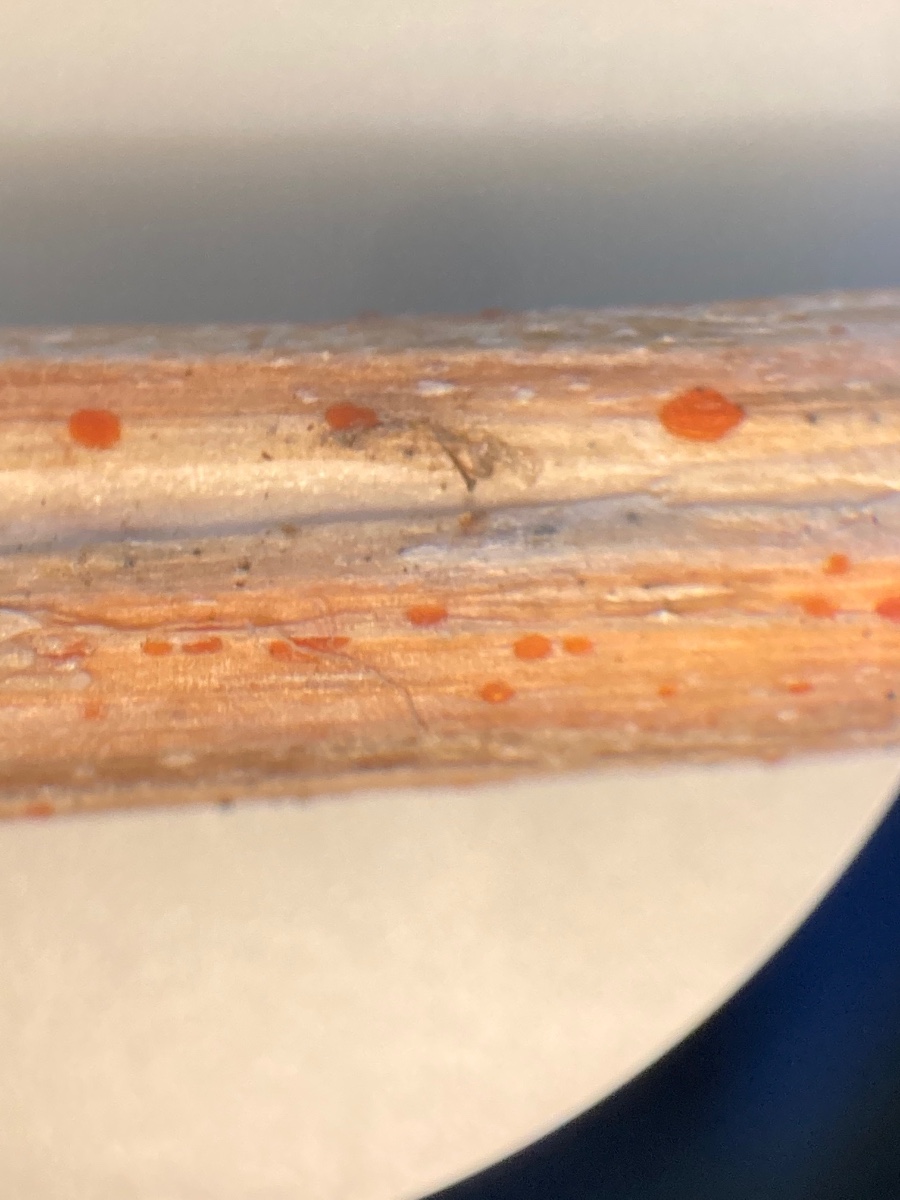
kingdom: Fungi
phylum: Ascomycota
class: Leotiomycetes
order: Helotiales
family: Calloriaceae
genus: Calloria
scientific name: Calloria urticae
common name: nælde-orangeskive
